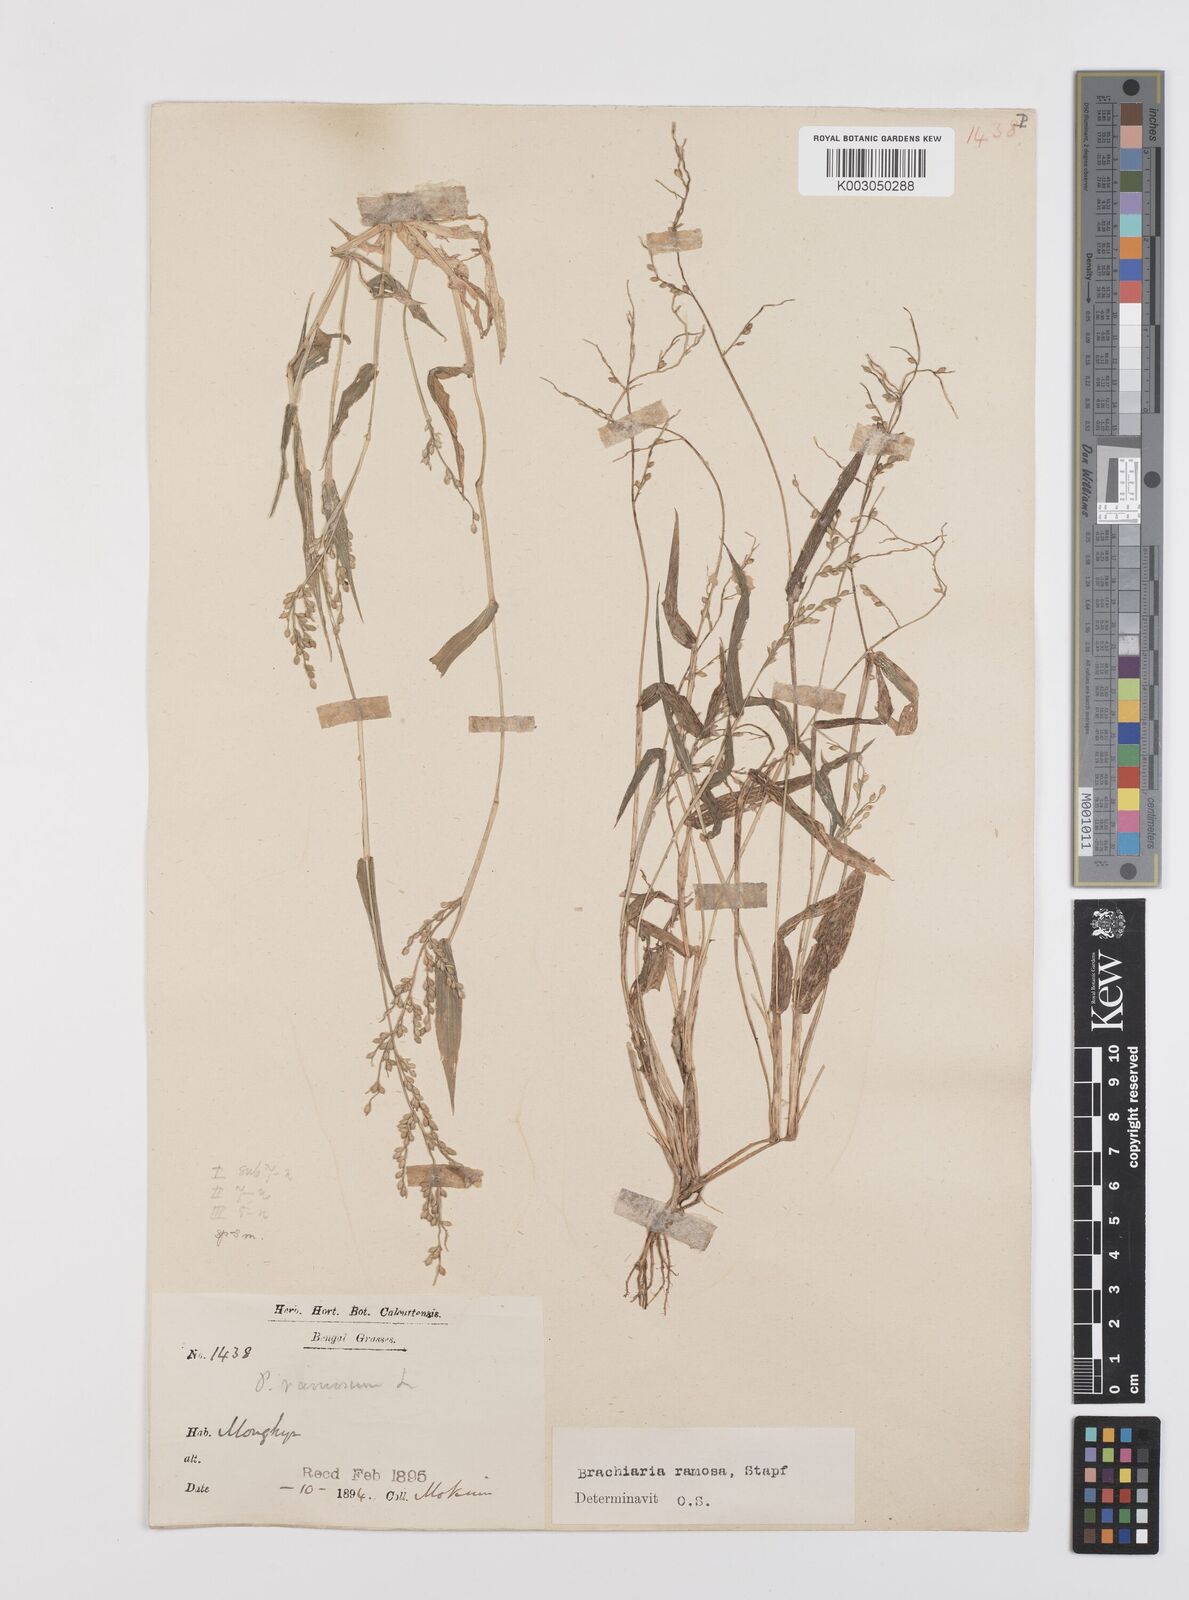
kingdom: Plantae
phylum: Tracheophyta
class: Liliopsida
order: Poales
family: Poaceae
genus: Urochloa
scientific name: Urochloa ramosa
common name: Browntop millet
